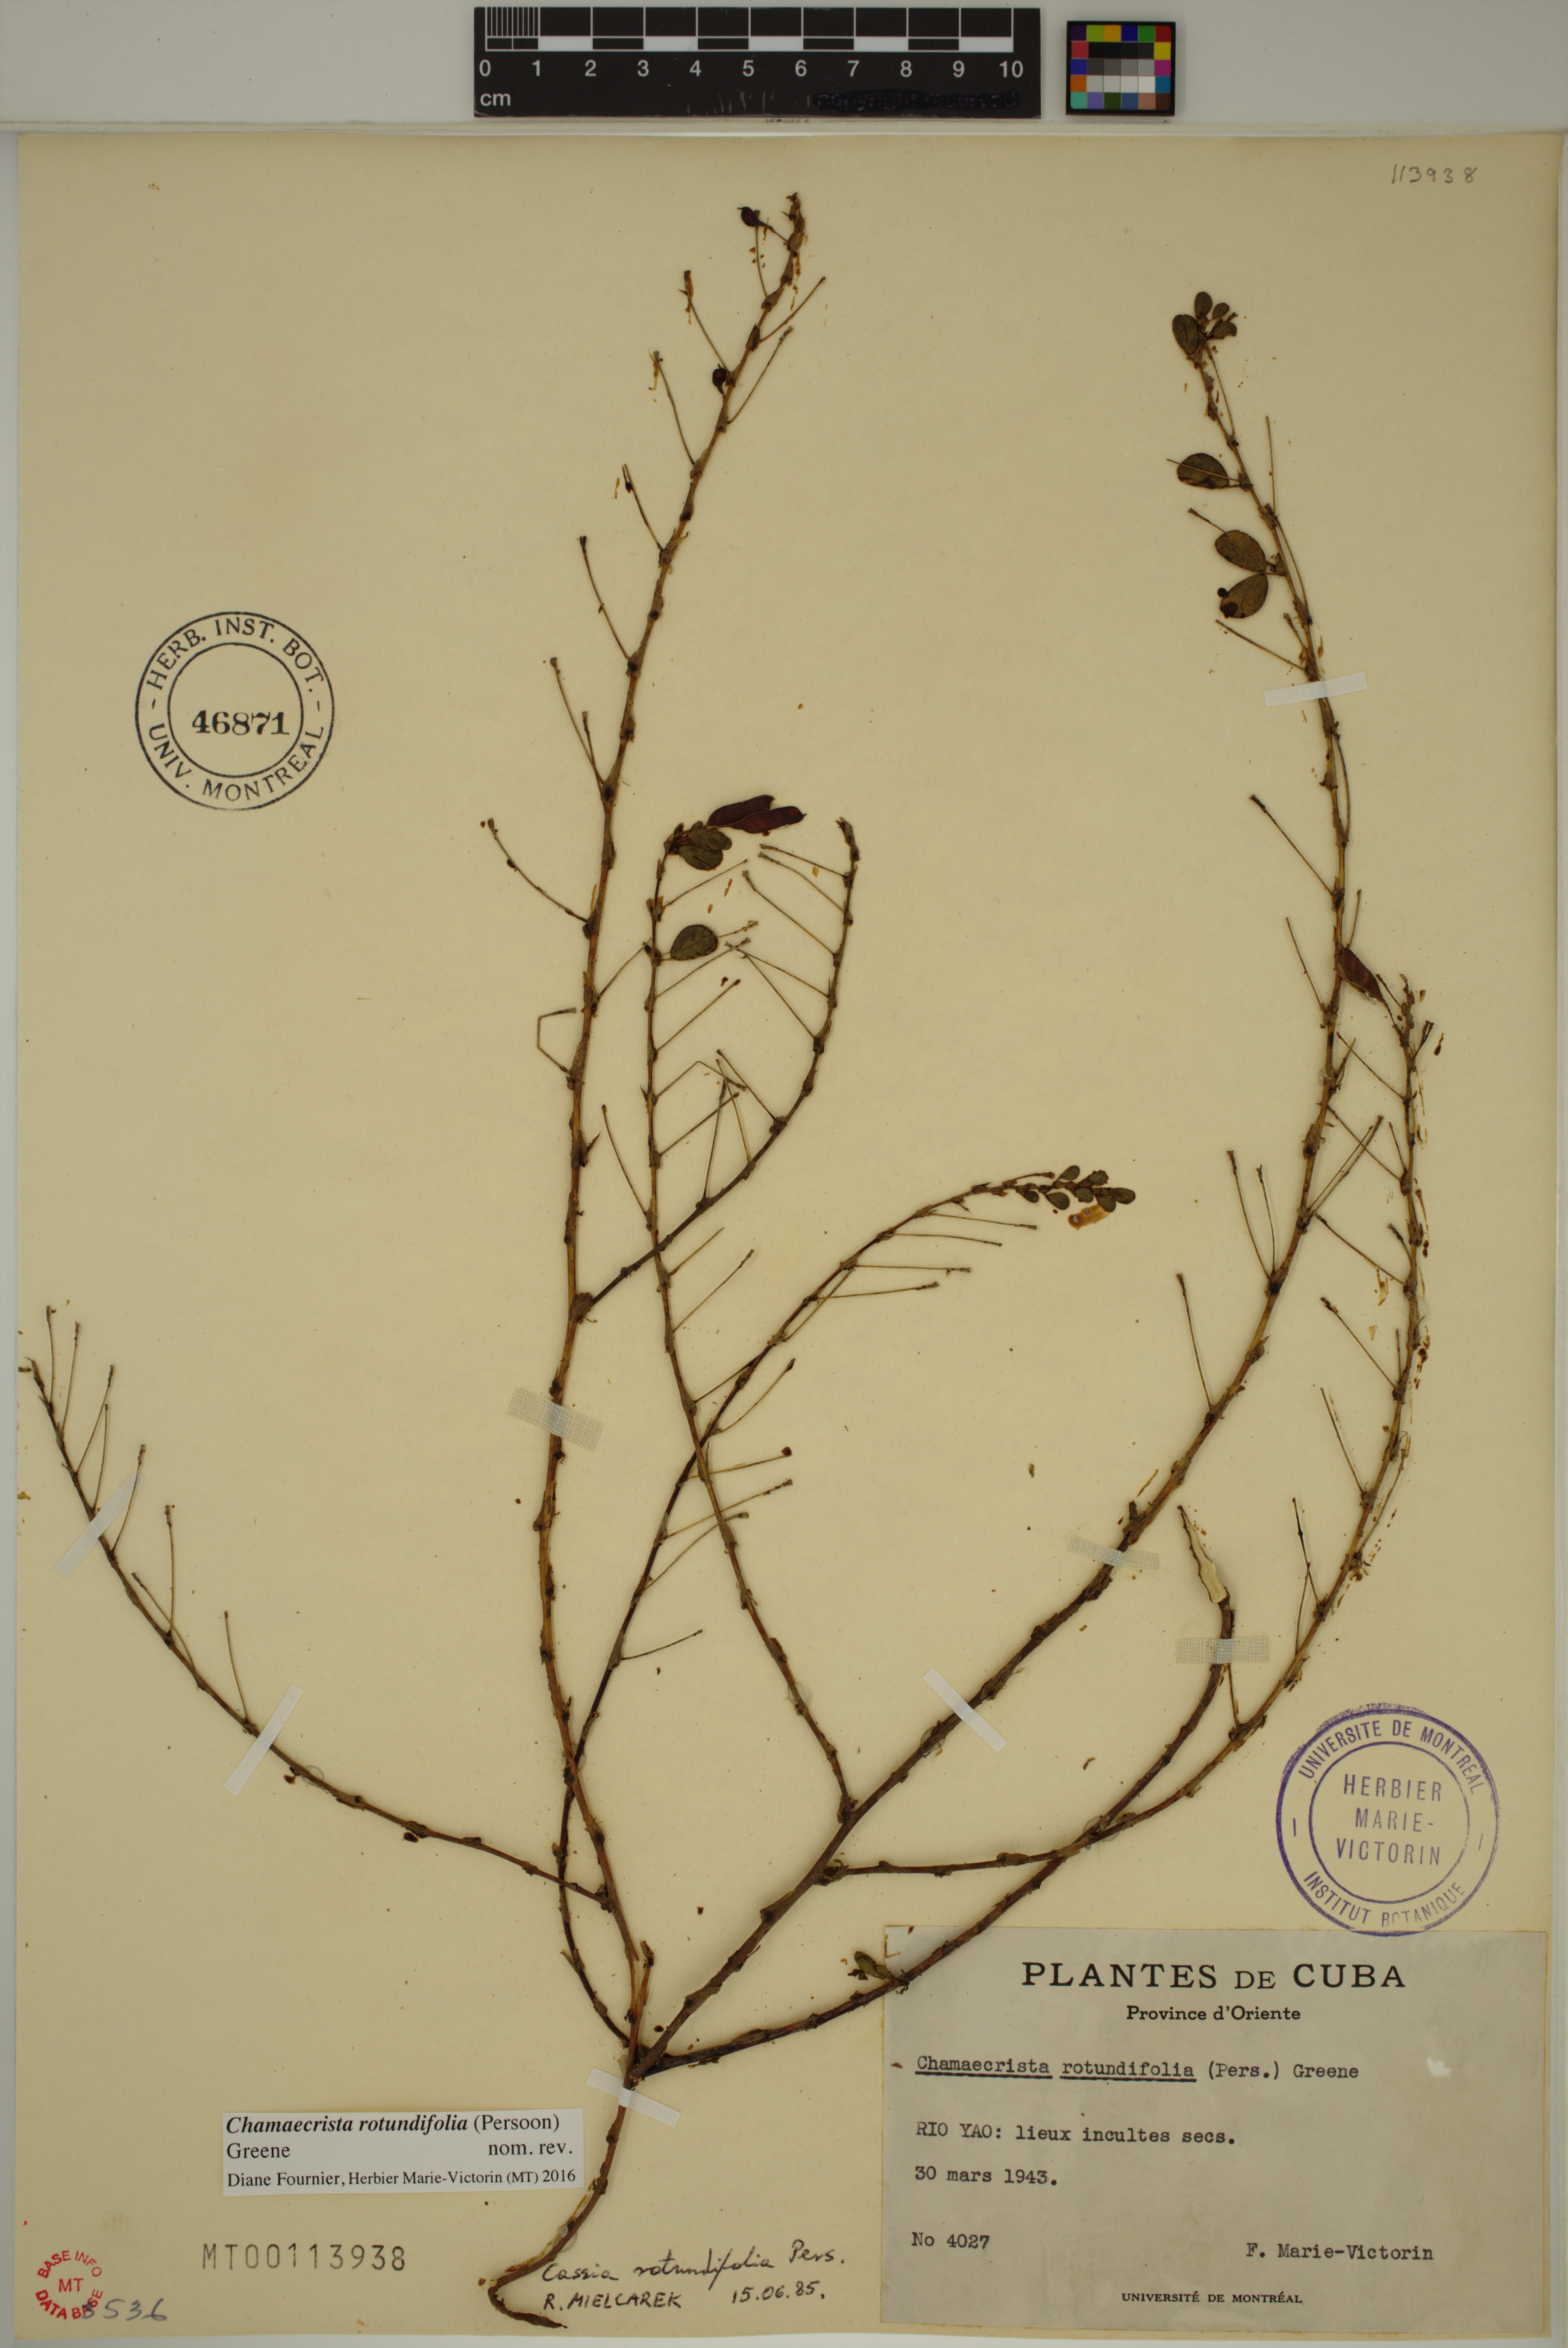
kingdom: Plantae
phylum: Tracheophyta
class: Magnoliopsida
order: Fabales
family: Fabaceae
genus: Chamaecrista
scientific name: Chamaecrista rotundifolia
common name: Round-leaf cassia
